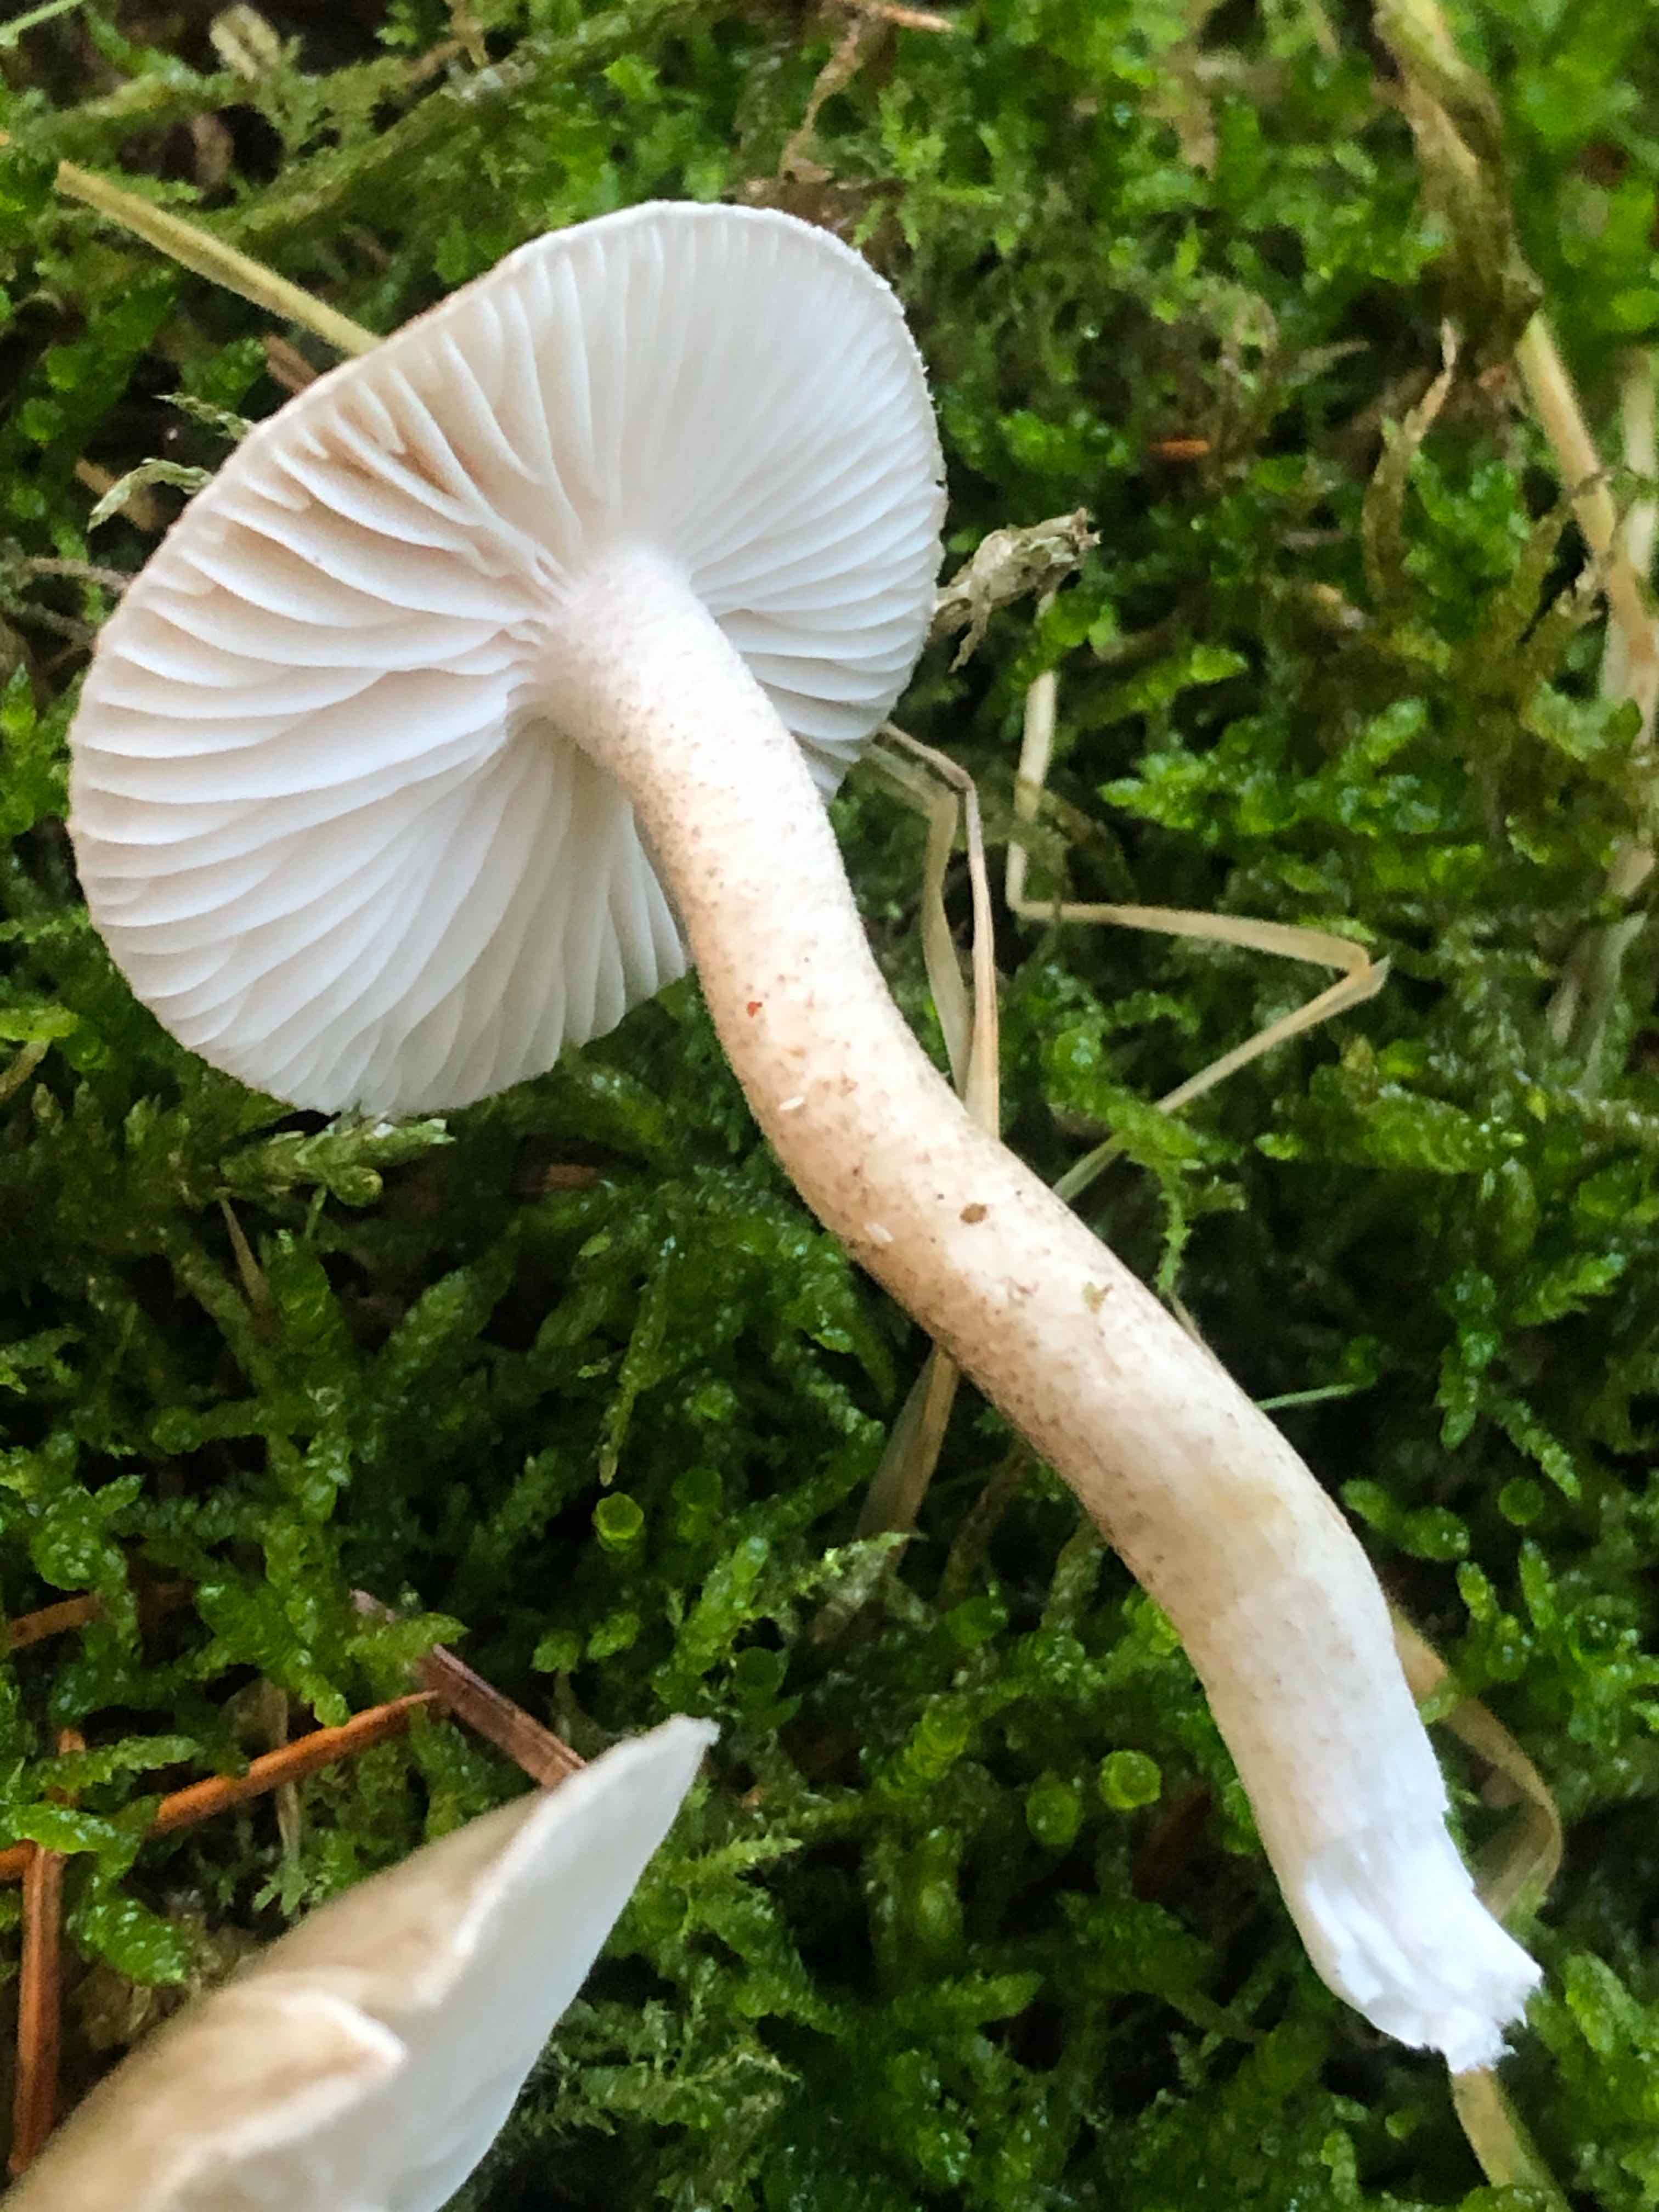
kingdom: Fungi
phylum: Basidiomycota
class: Agaricomycetes
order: Agaricales
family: Hygrophoraceae
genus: Hygrophorus
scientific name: Hygrophorus pustulatus
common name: mørkprikket sneglehat
